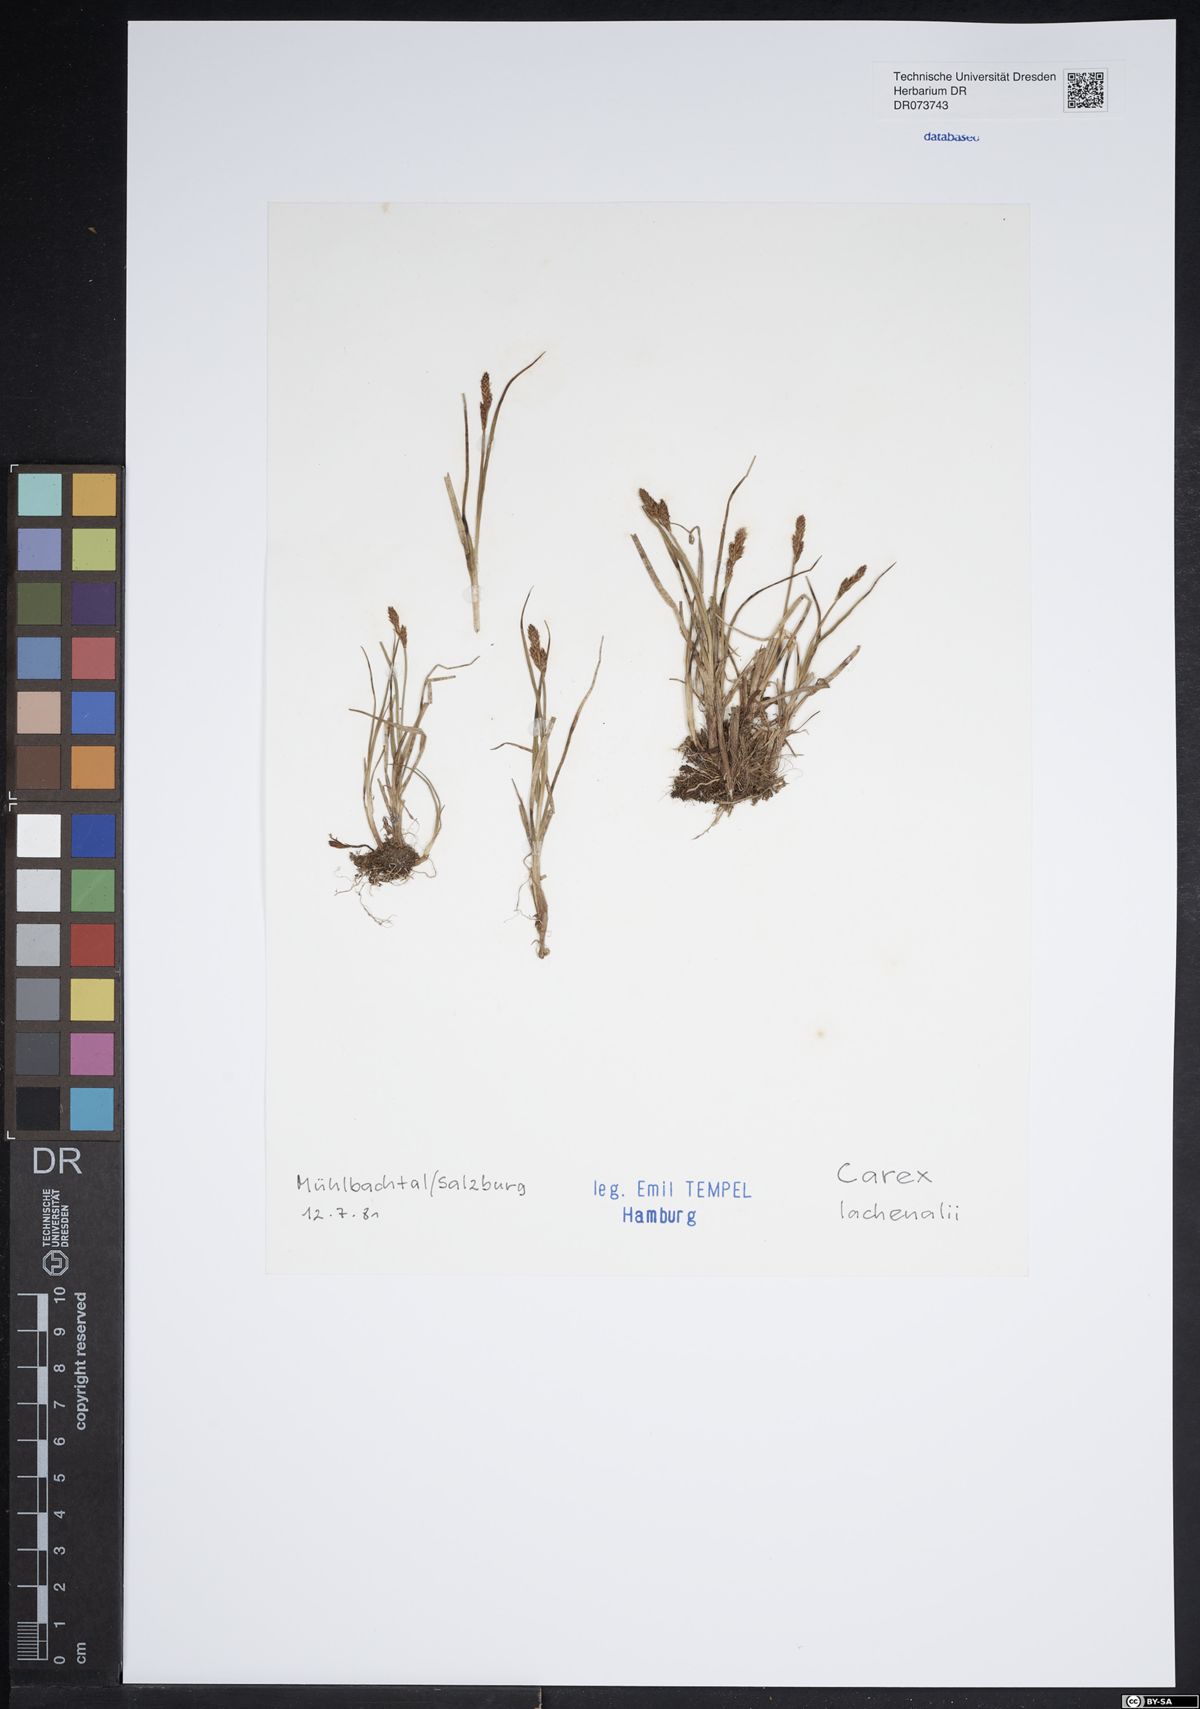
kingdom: Plantae
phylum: Tracheophyta
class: Liliopsida
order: Poales
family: Cyperaceae
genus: Carex
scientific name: Carex lachenalii
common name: Hare's-foot sedge
